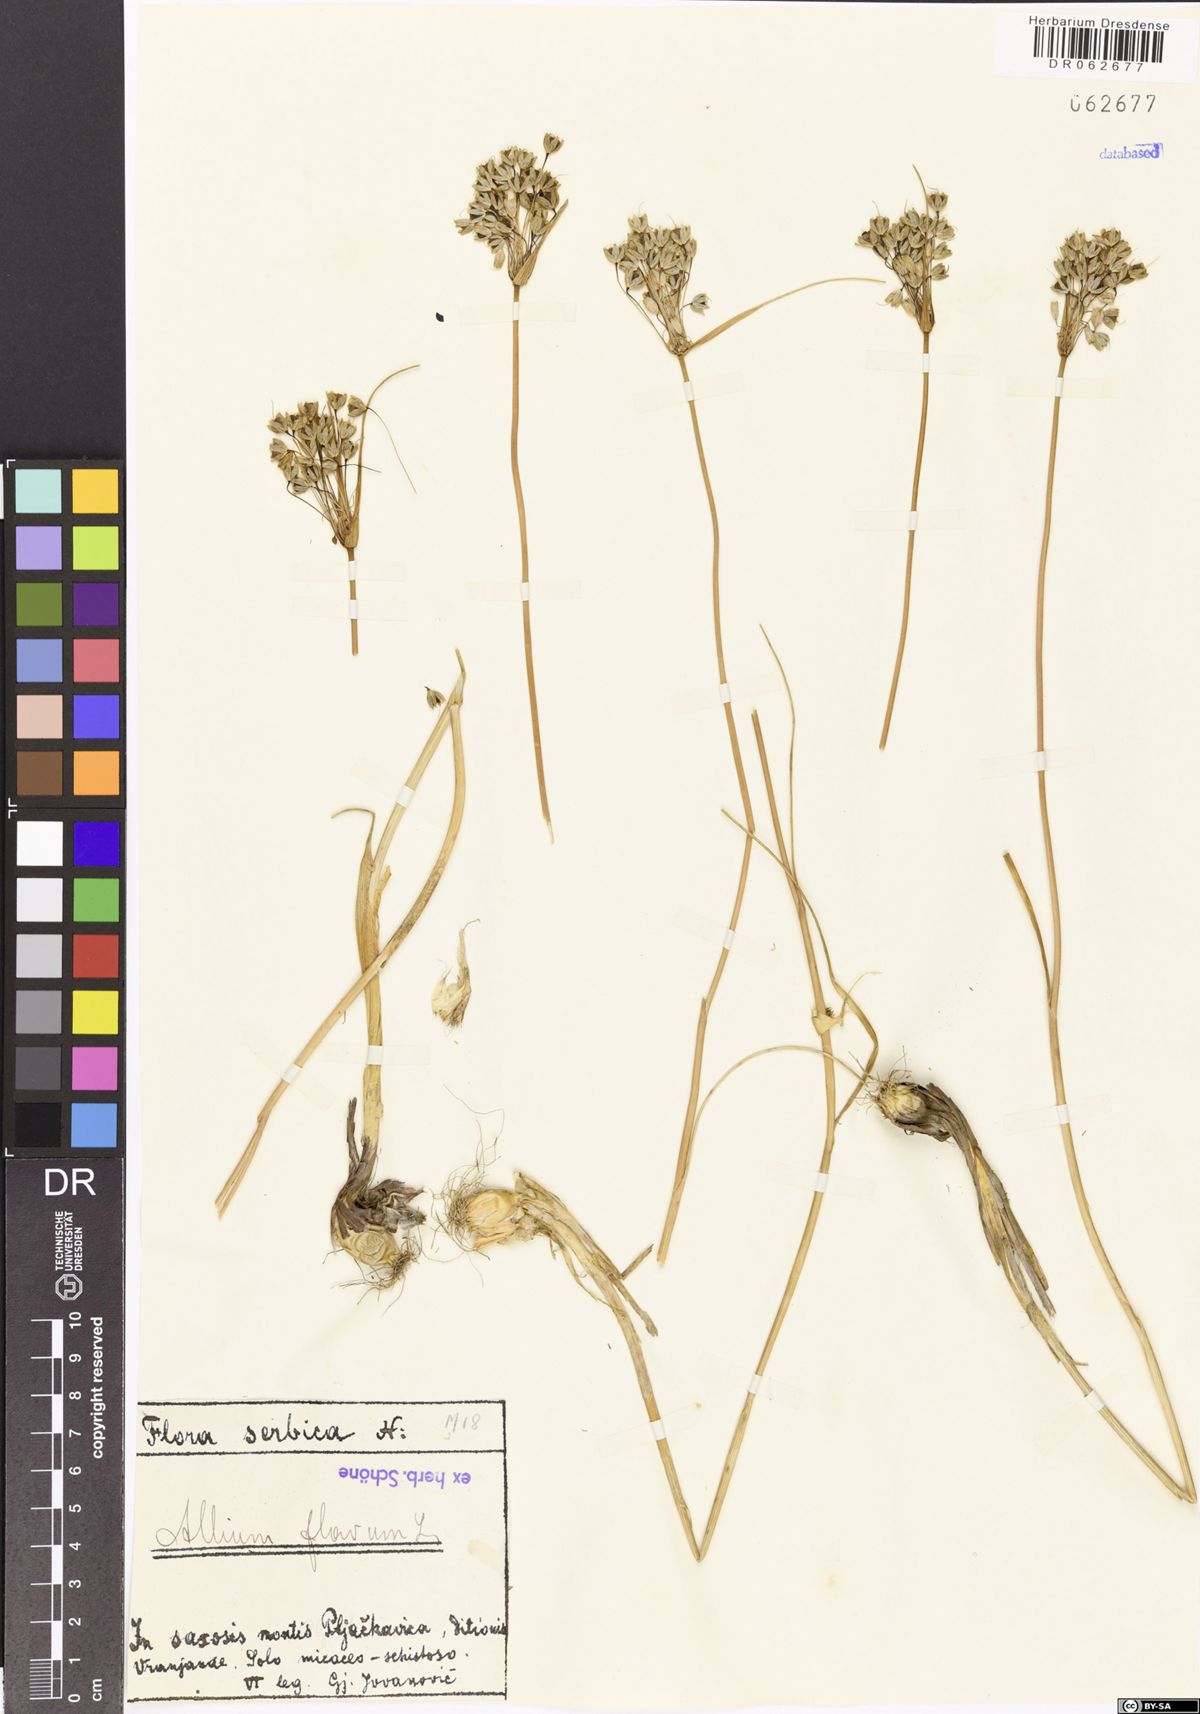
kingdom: Plantae
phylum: Tracheophyta
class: Liliopsida
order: Asparagales
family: Amaryllidaceae
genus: Allium
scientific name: Allium flavum
